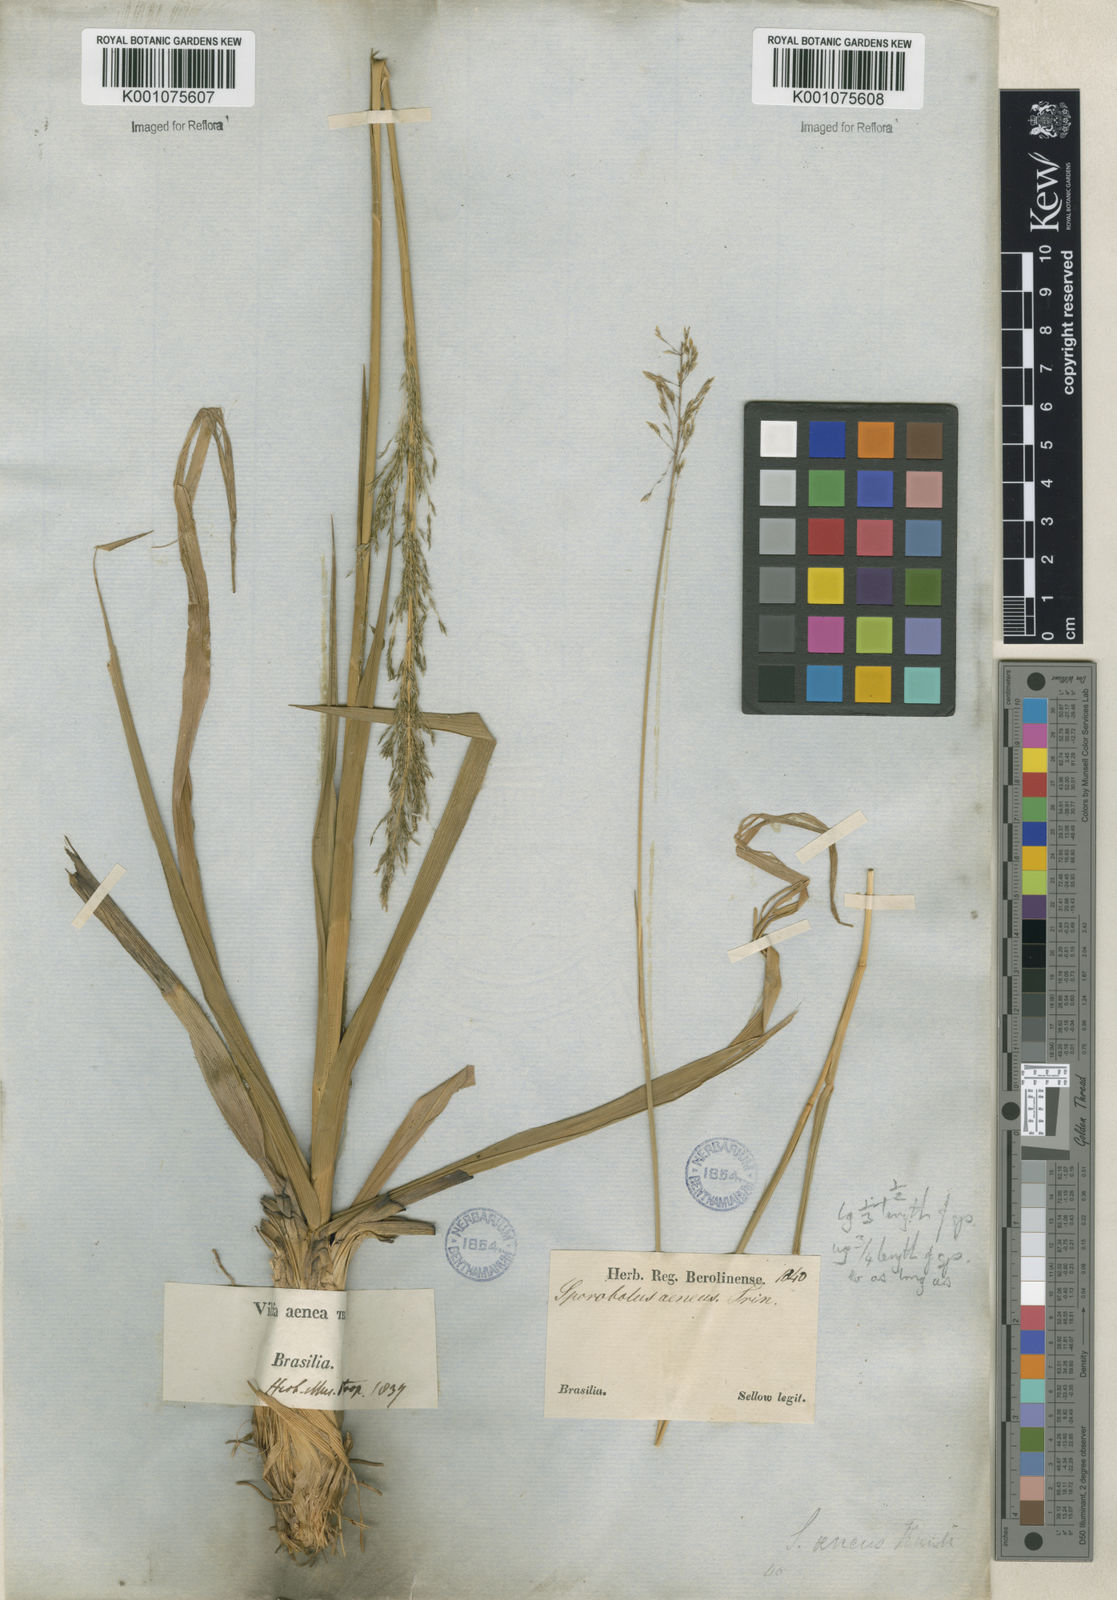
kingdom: Plantae
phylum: Tracheophyta
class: Liliopsida
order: Poales
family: Poaceae
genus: Sporobolus
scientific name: Sporobolus
